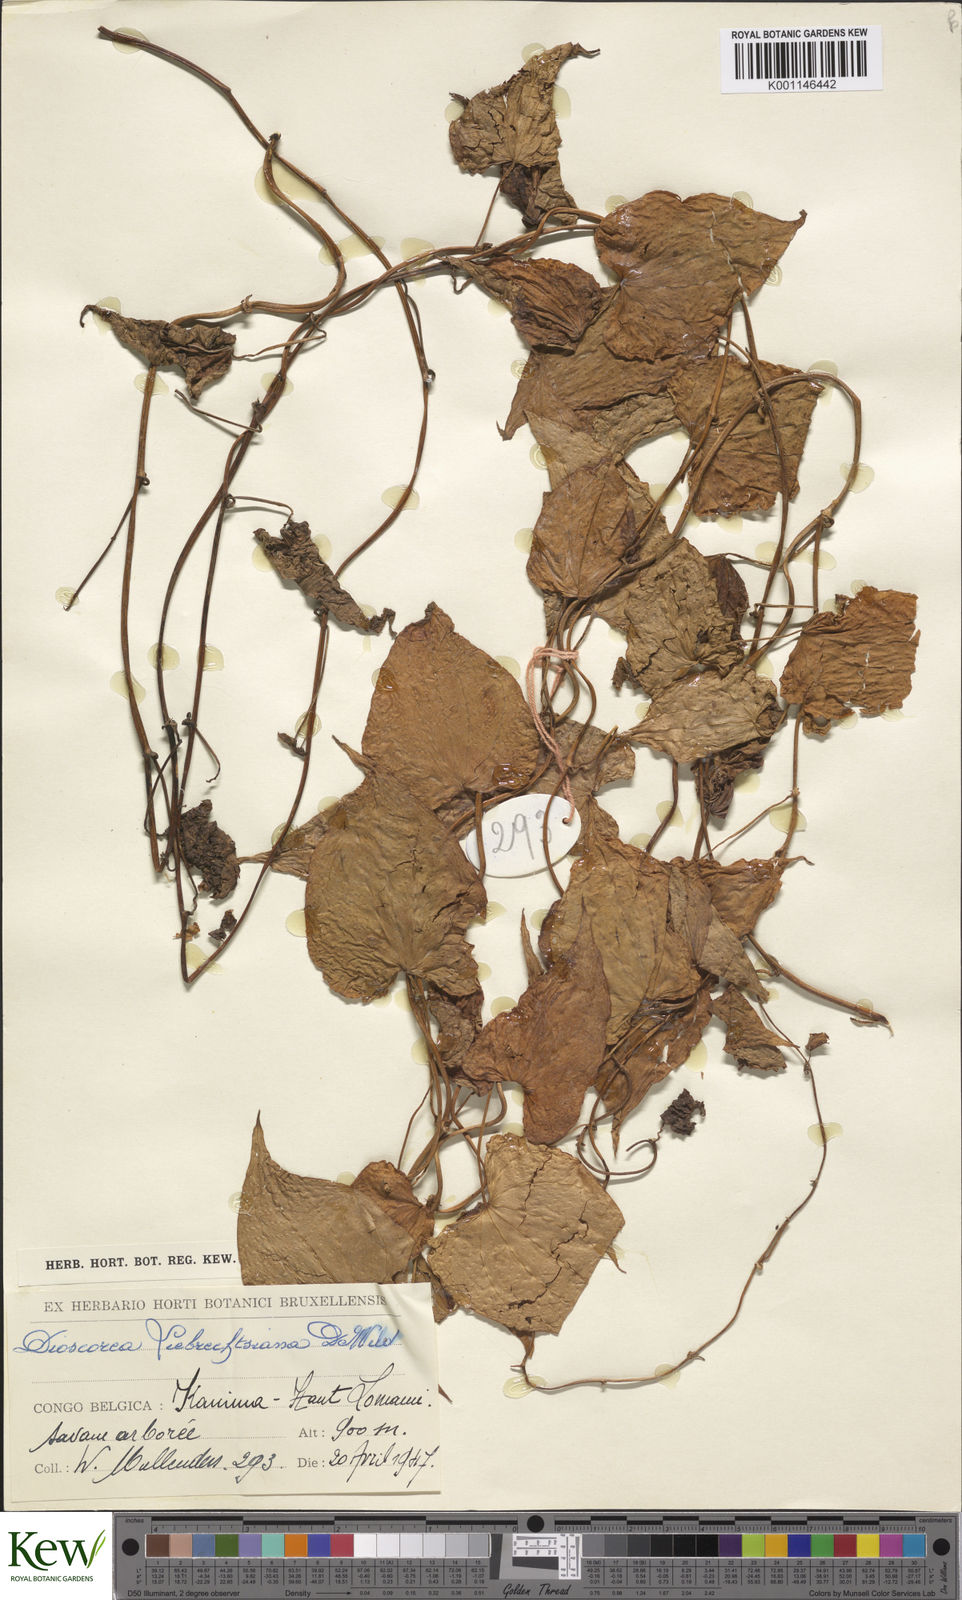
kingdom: Plantae
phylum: Tracheophyta
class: Liliopsida
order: Dioscoreales
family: Dioscoreaceae
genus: Dioscorea
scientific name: Dioscorea praehensilis
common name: Bush yam
